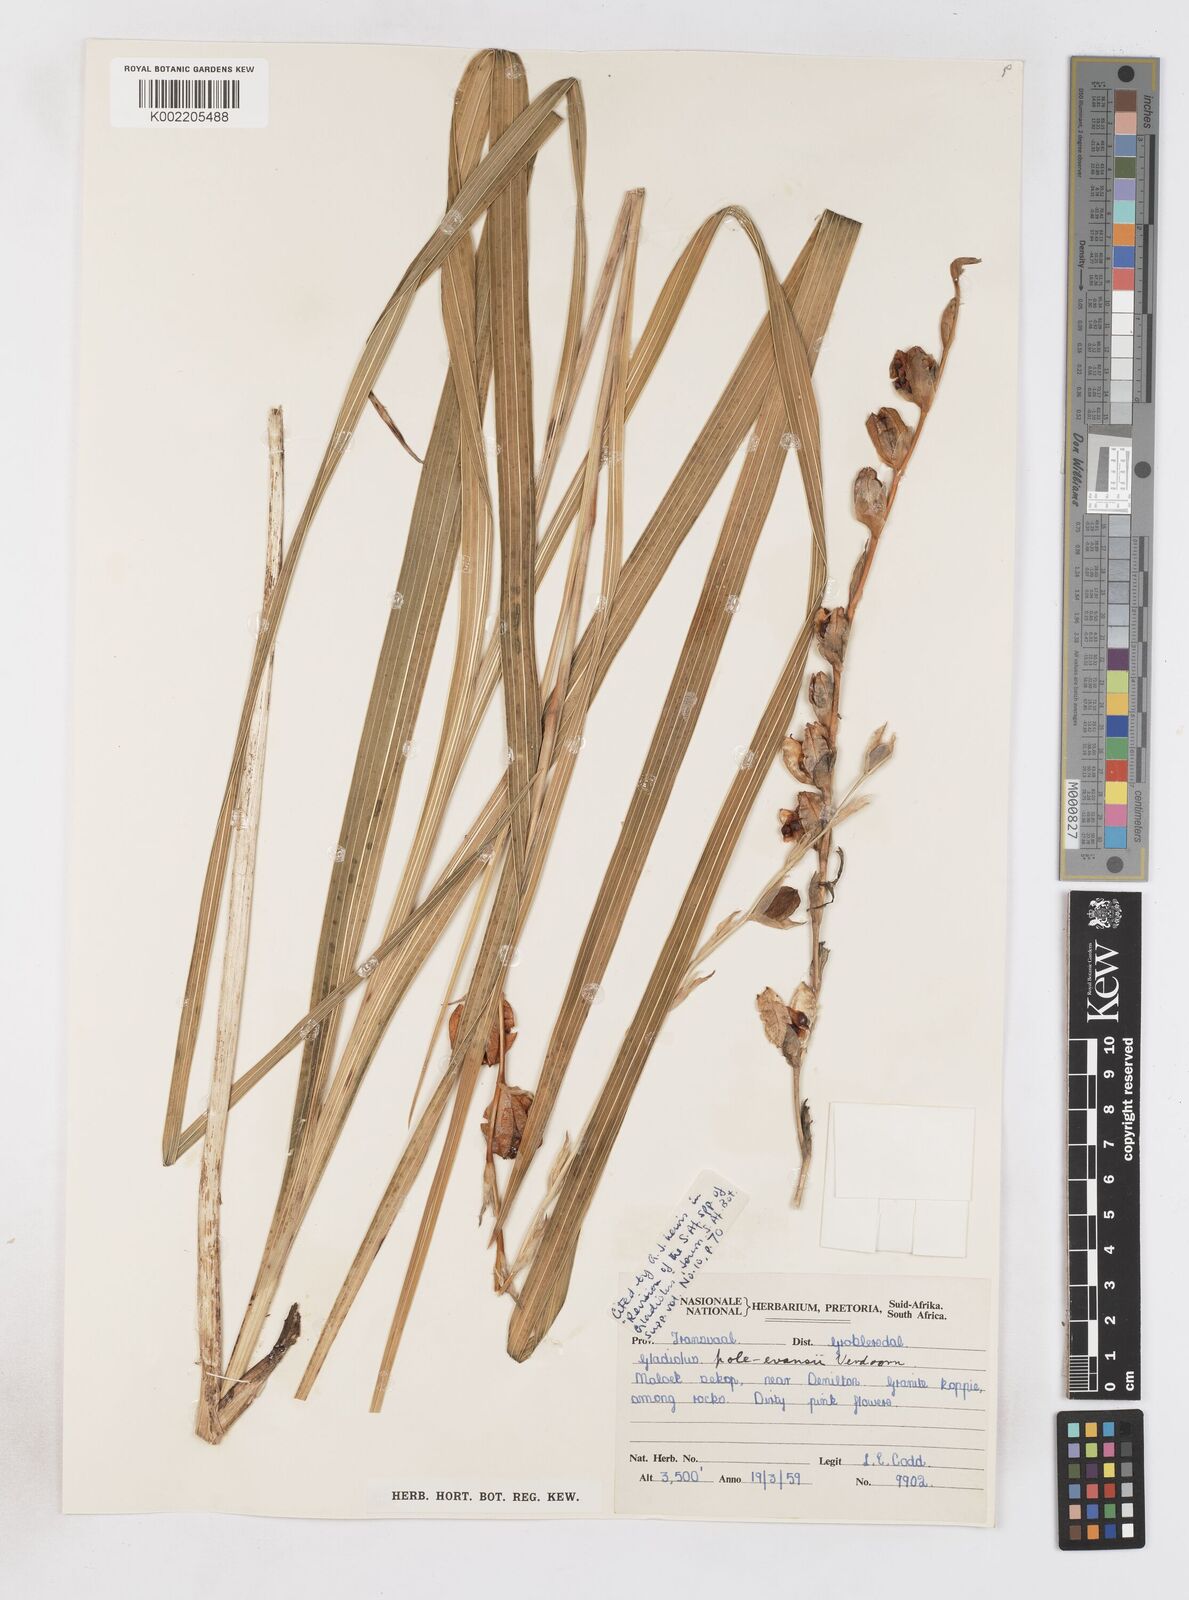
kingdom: Plantae
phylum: Tracheophyta
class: Liliopsida
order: Asparagales
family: Iridaceae
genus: Gladiolus
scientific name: Gladiolus pole-evansii
